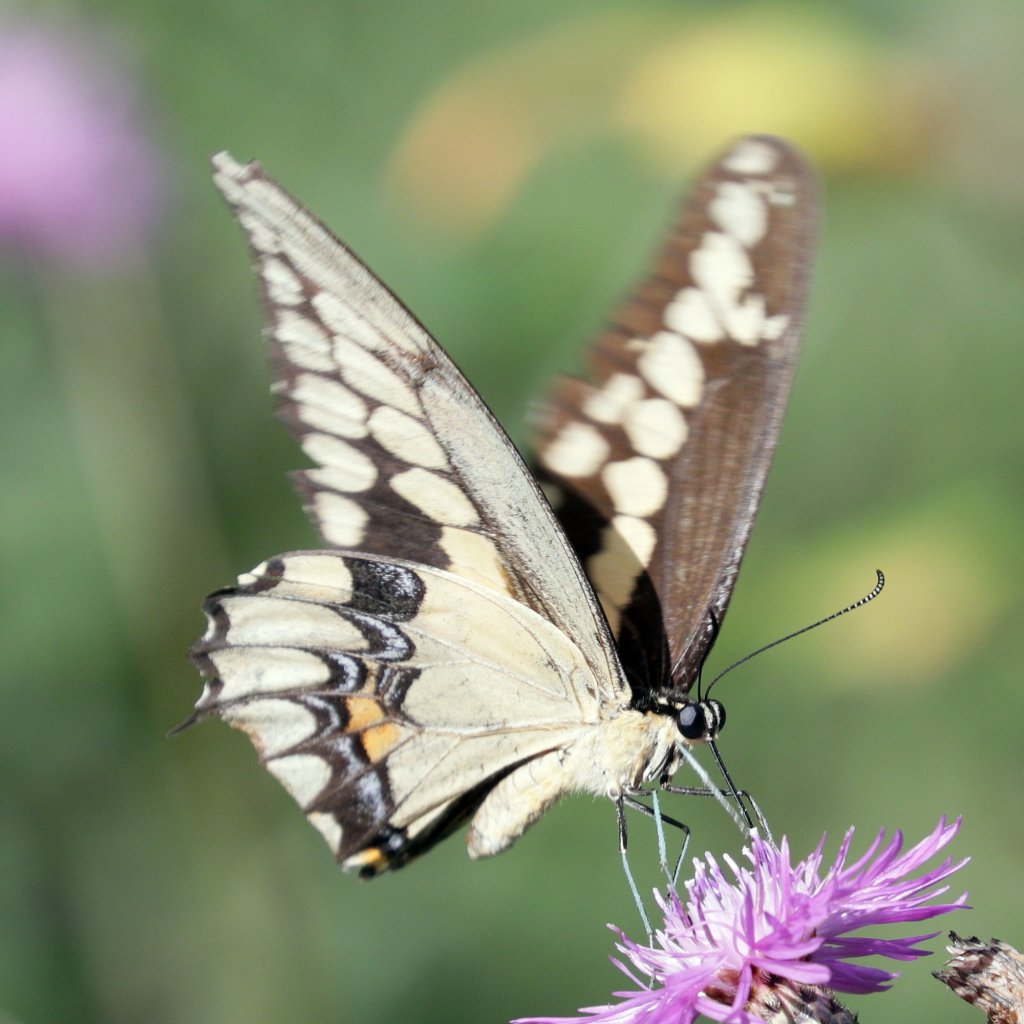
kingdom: Animalia
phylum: Arthropoda
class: Insecta
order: Lepidoptera
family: Papilionidae
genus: Papilio
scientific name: Papilio cresphontes
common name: Eastern Giant Swallowtail
